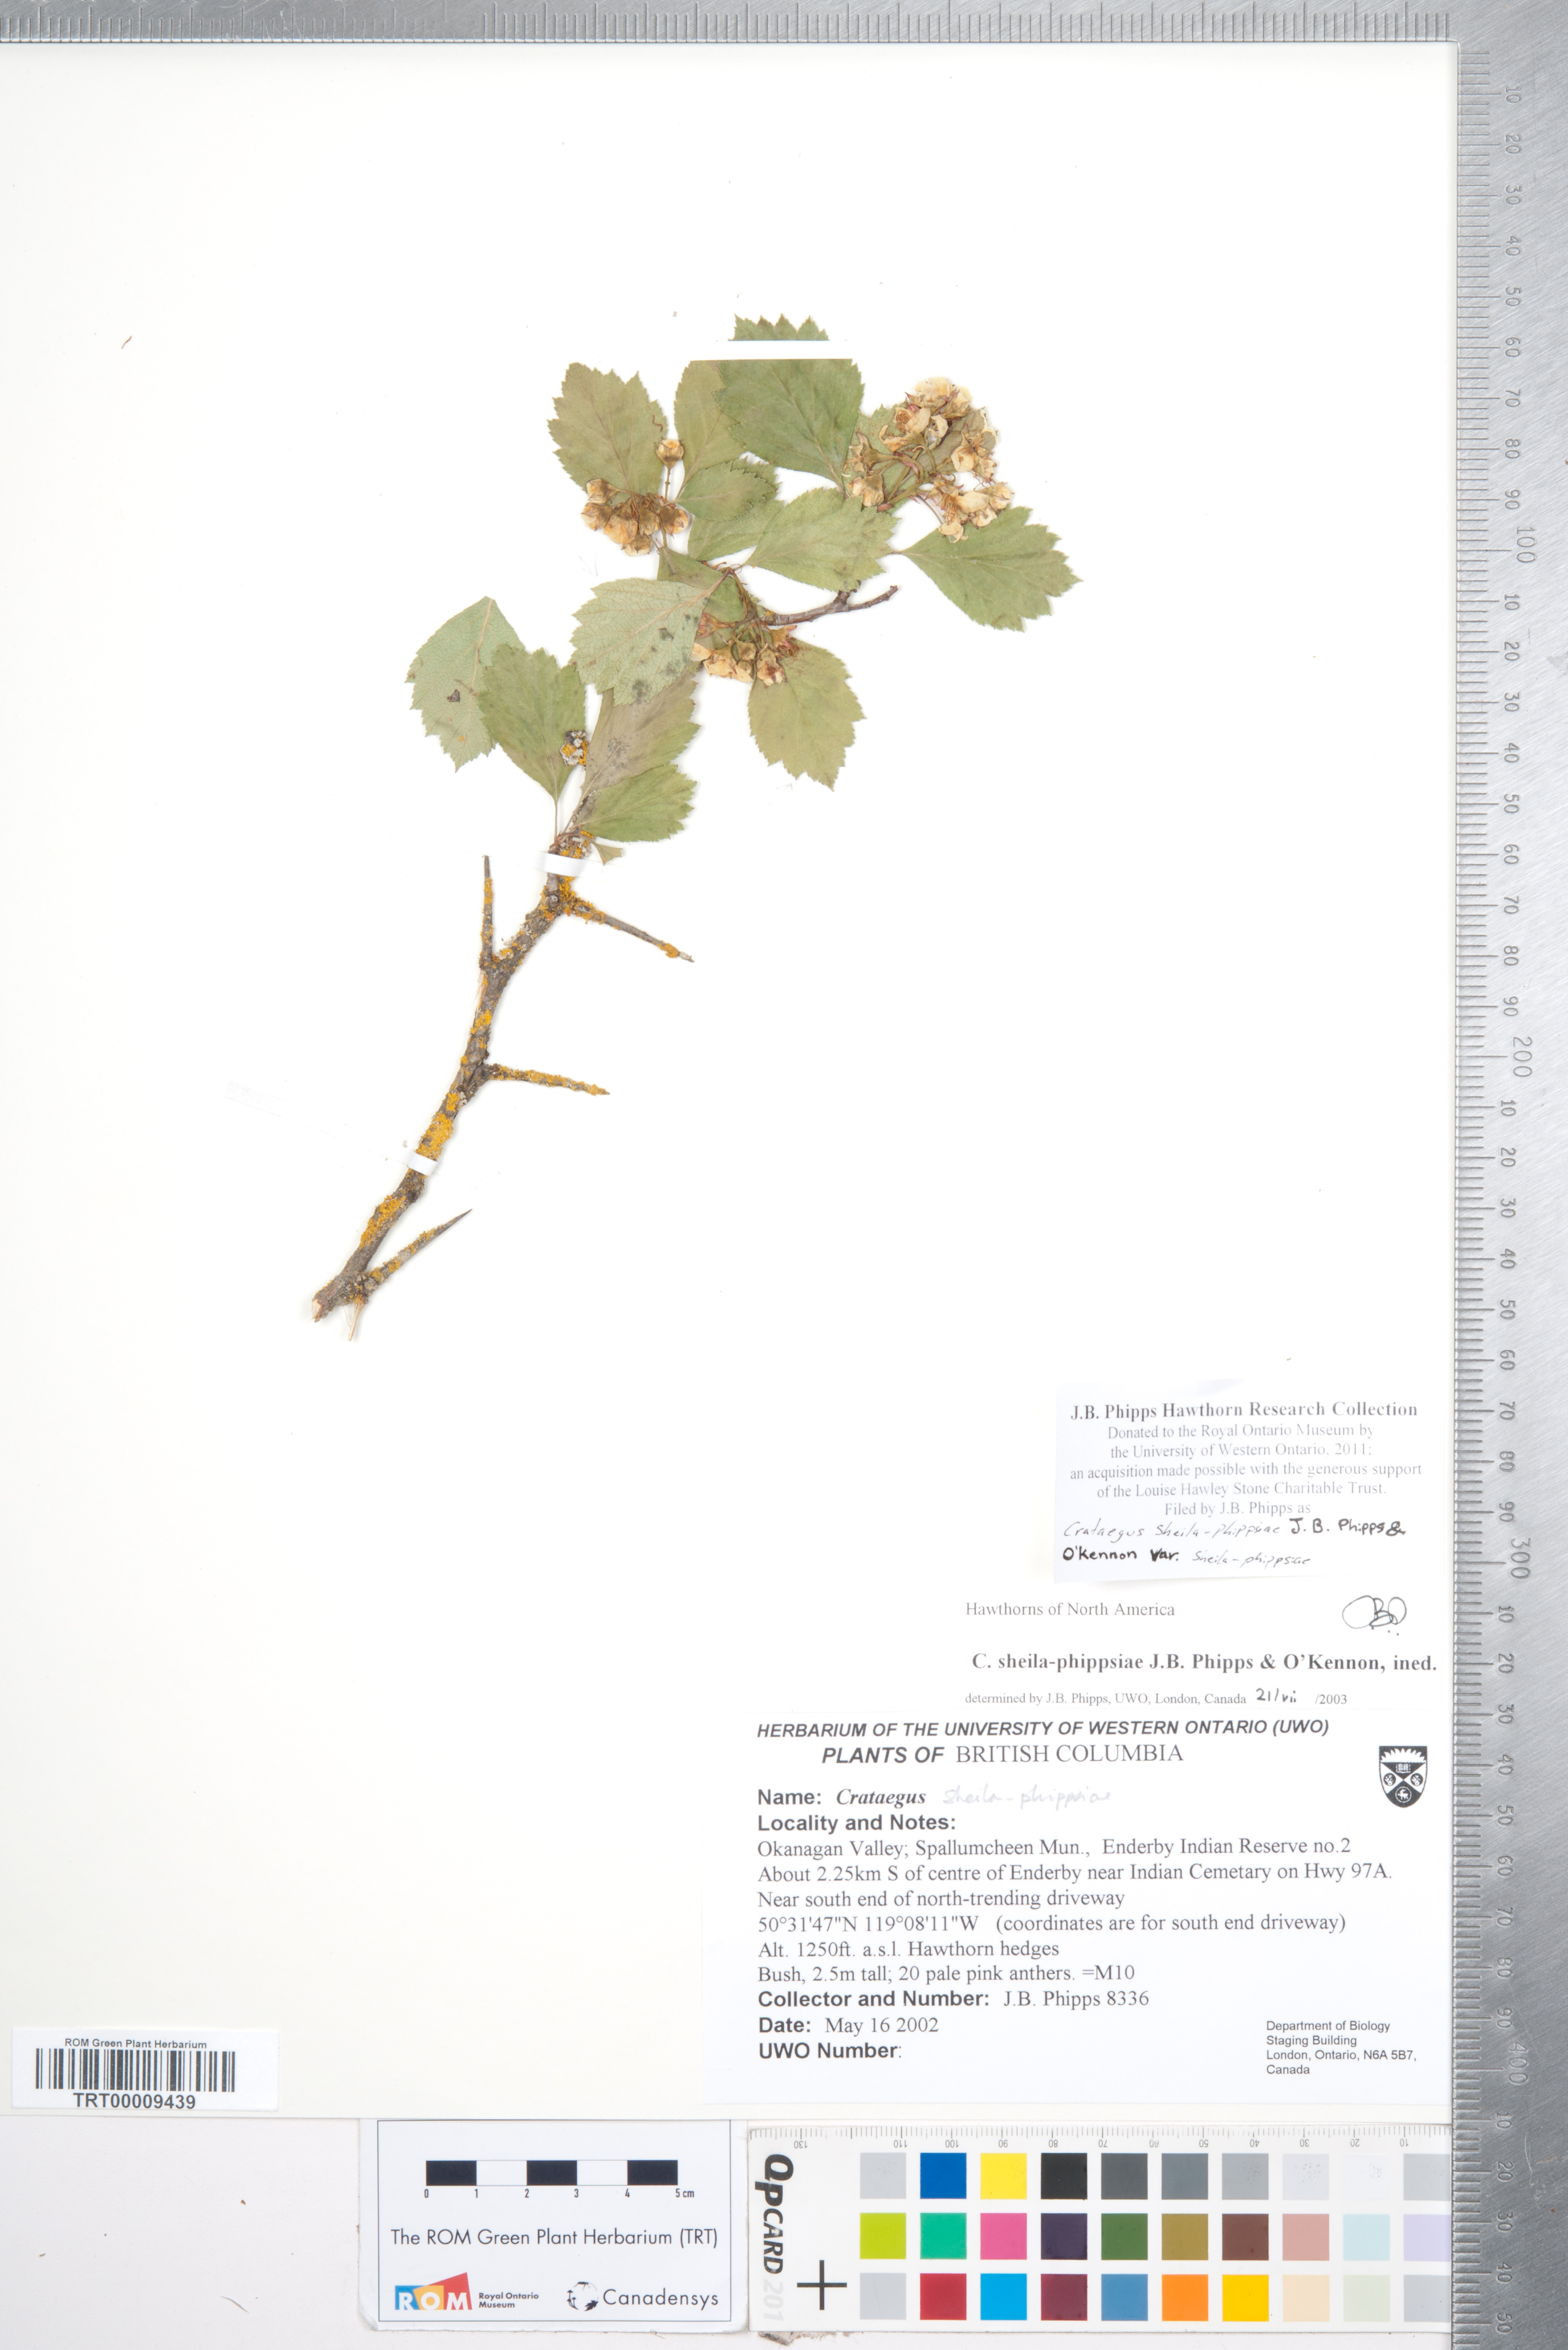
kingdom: Plantae
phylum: Tracheophyta
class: Magnoliopsida
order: Rosales
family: Rosaceae
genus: Crataegus
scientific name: Crataegus sheila-phippsiae
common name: Sheila phipps' hawthorn
